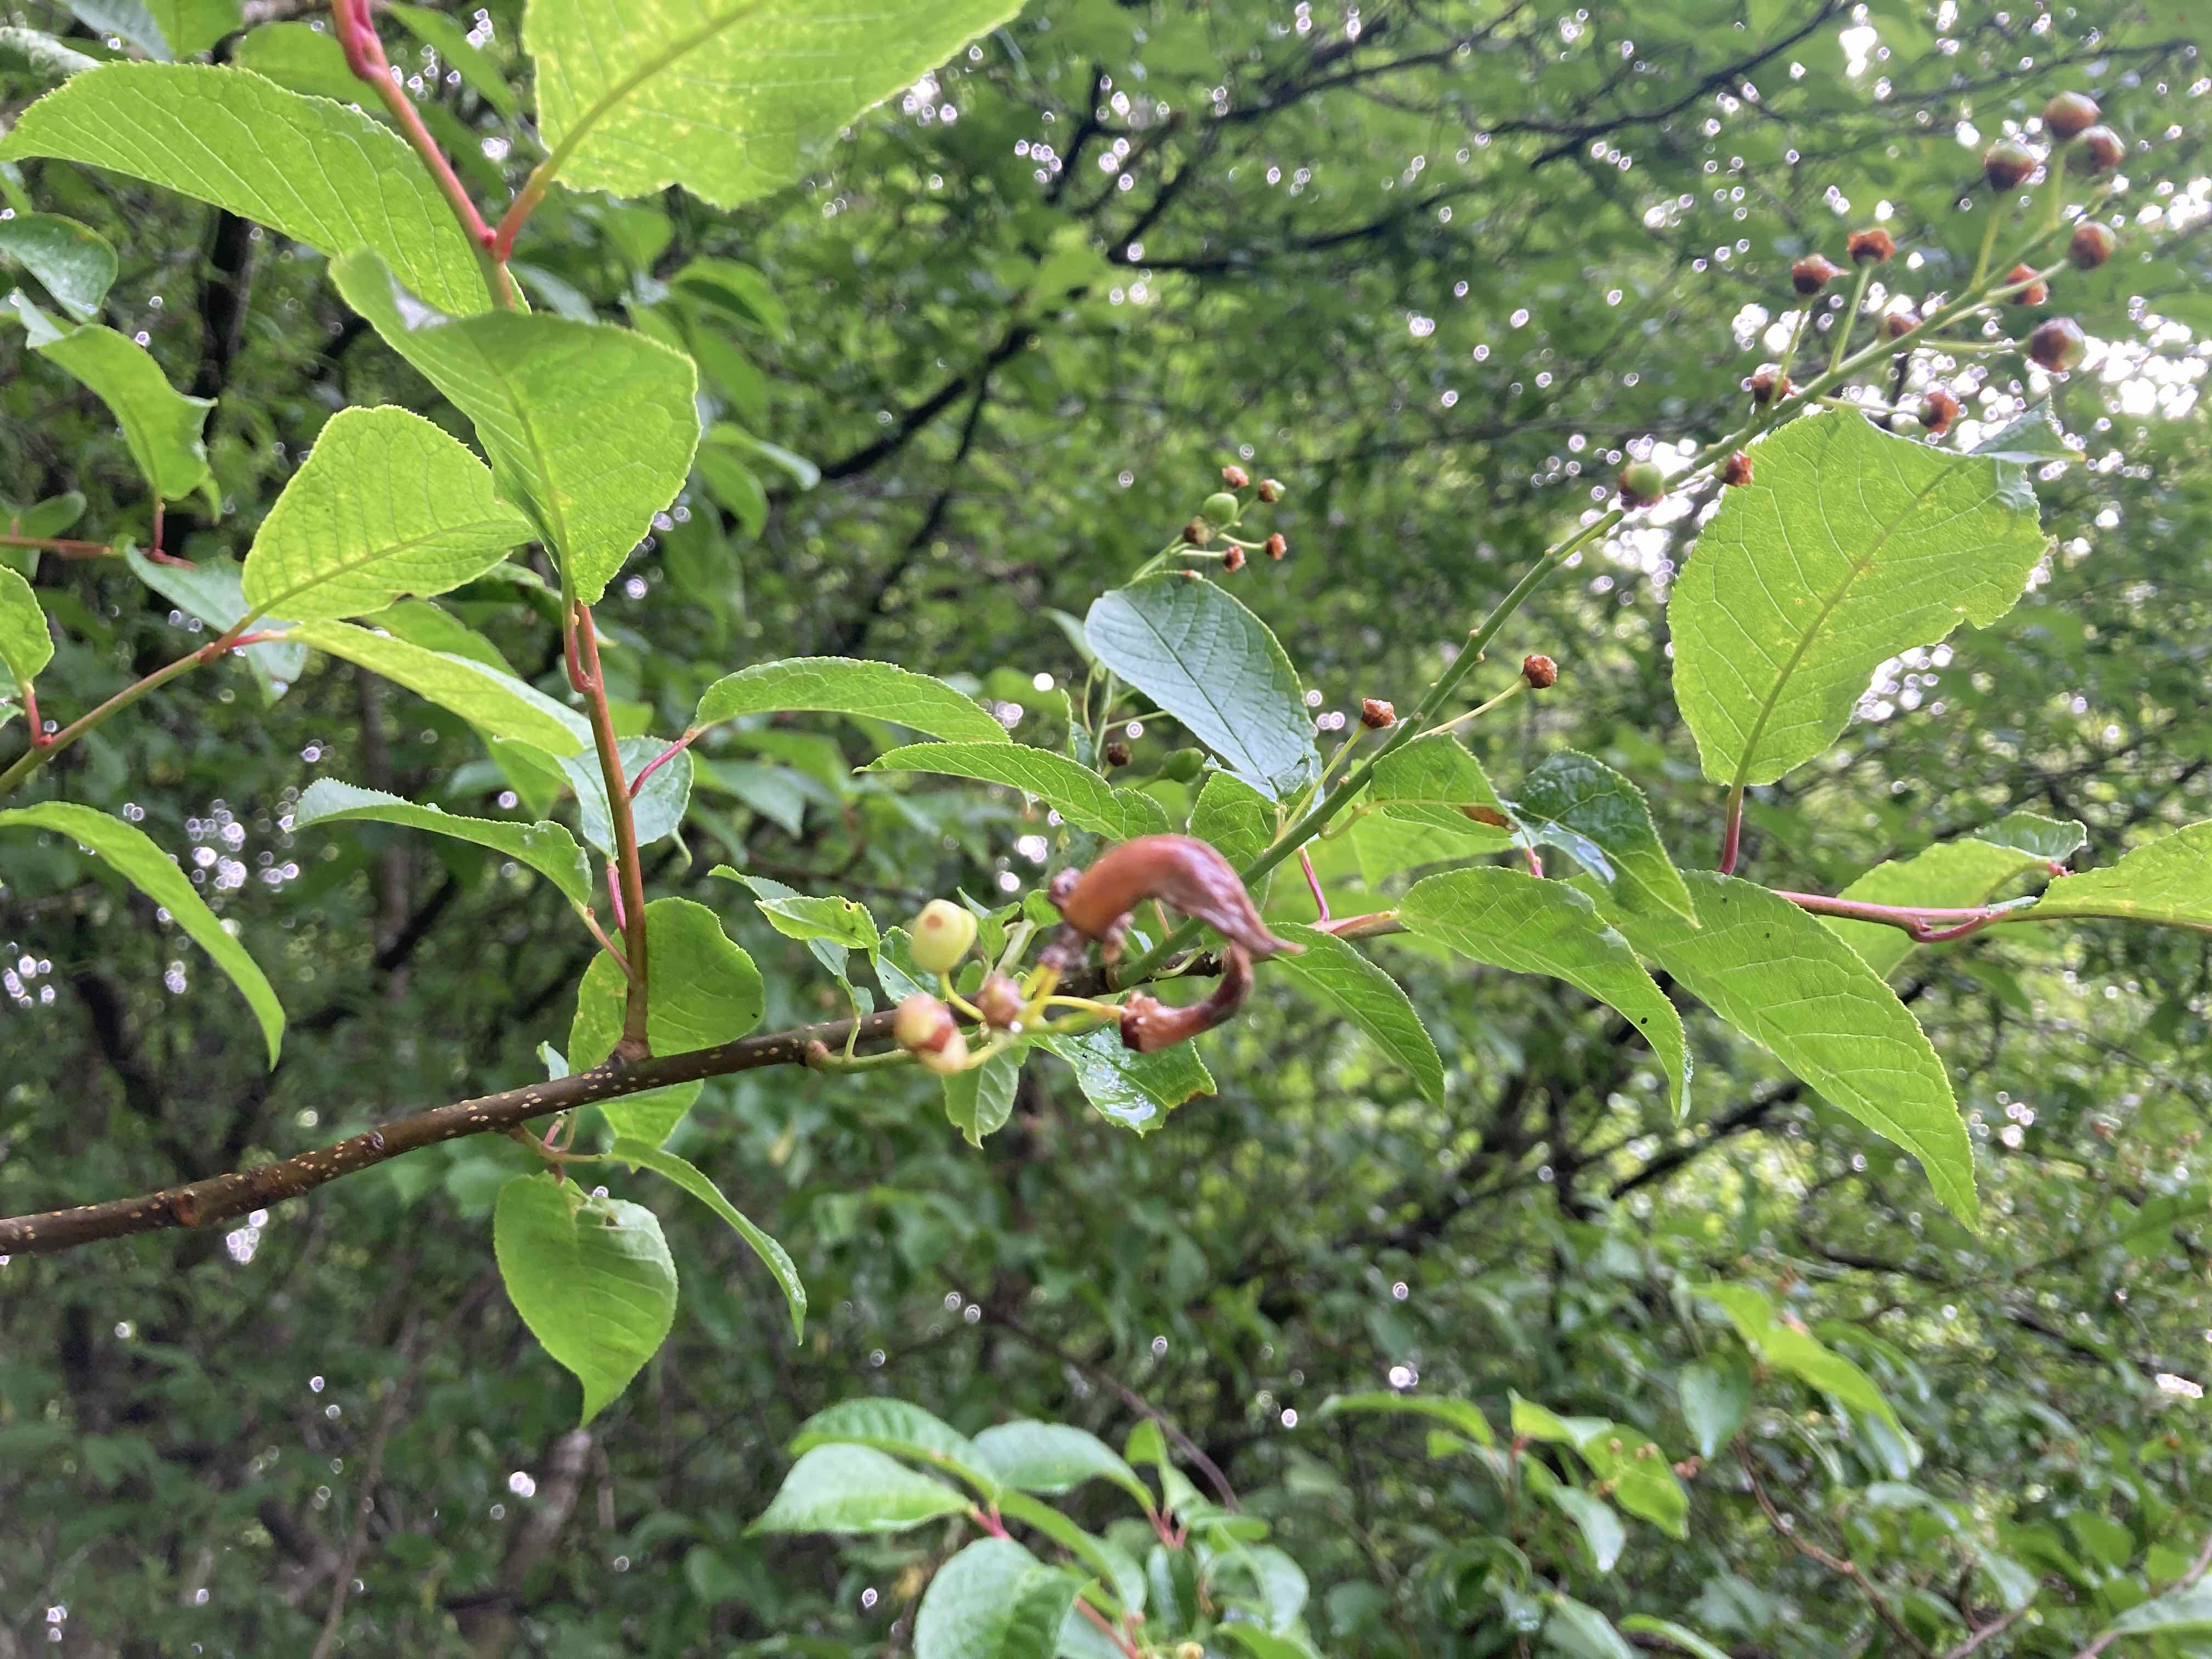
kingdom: Fungi
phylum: Ascomycota
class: Taphrinomycetes
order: Taphrinales
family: Taphrinaceae
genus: Taphrina
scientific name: Taphrina padi
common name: Bird cherry pocket
